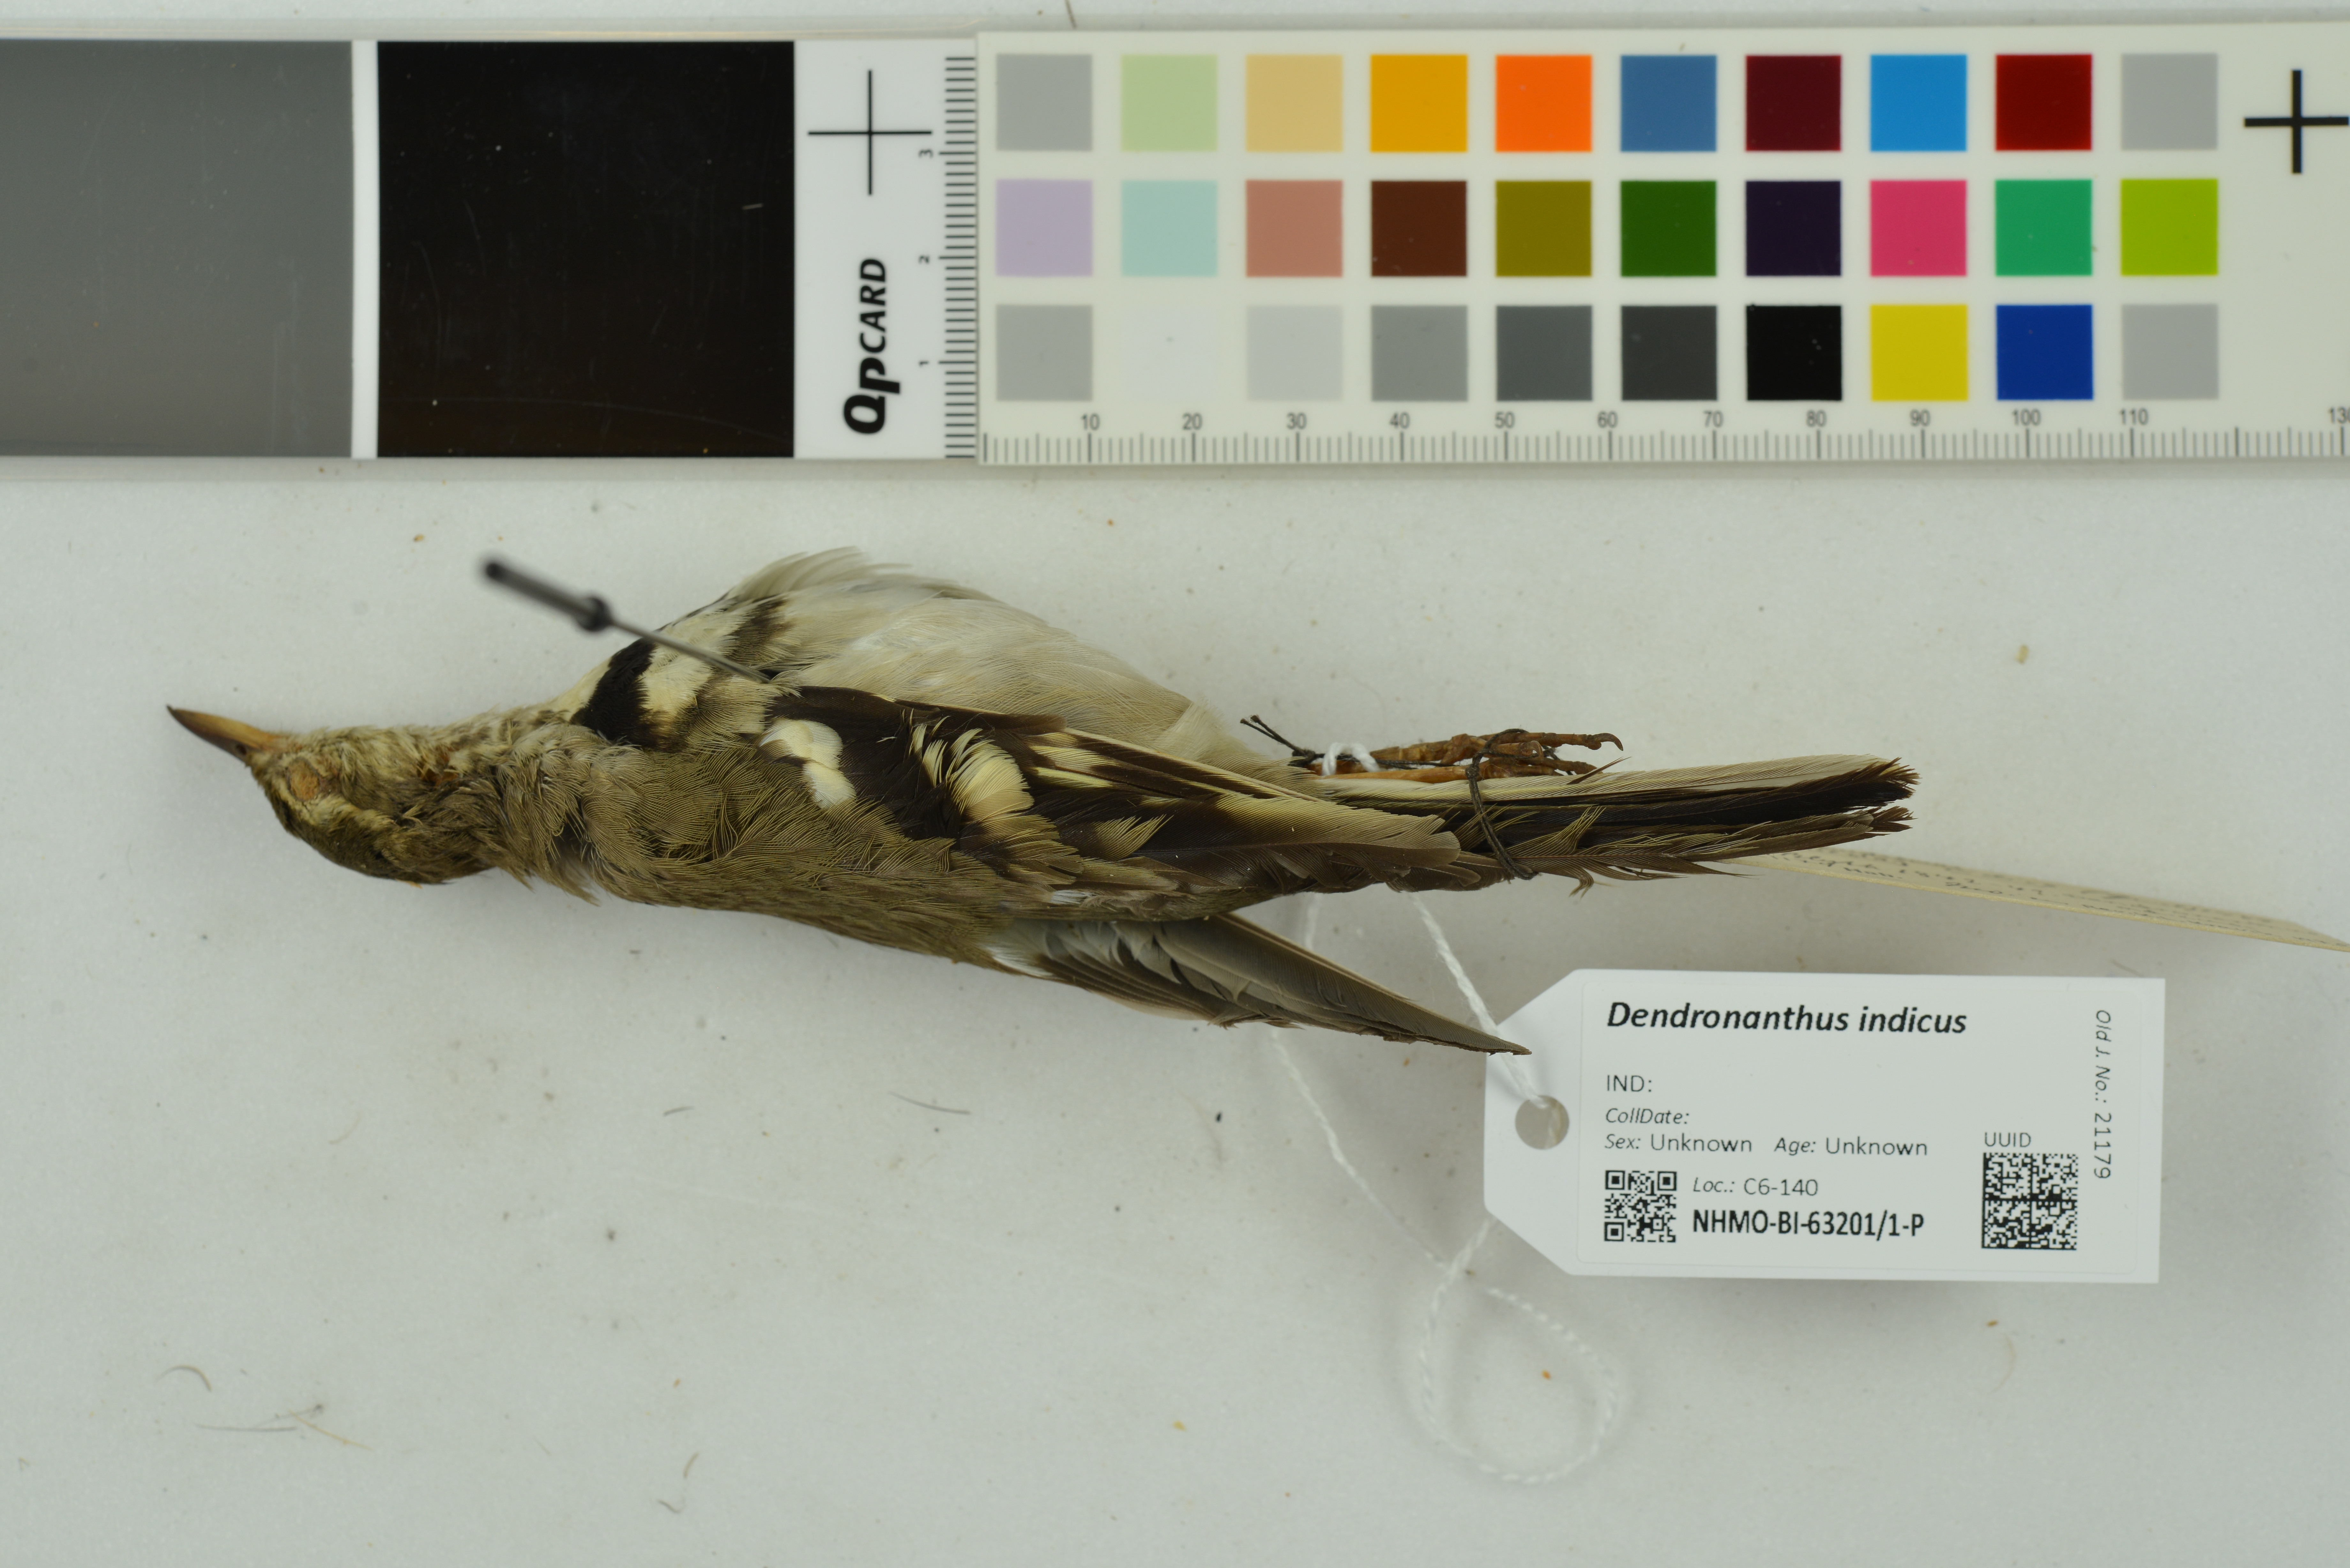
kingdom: Animalia
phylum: Chordata
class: Aves
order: Passeriformes
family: Motacillidae
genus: Dendronanthus
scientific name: Dendronanthus indicus
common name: Forest wagtail
